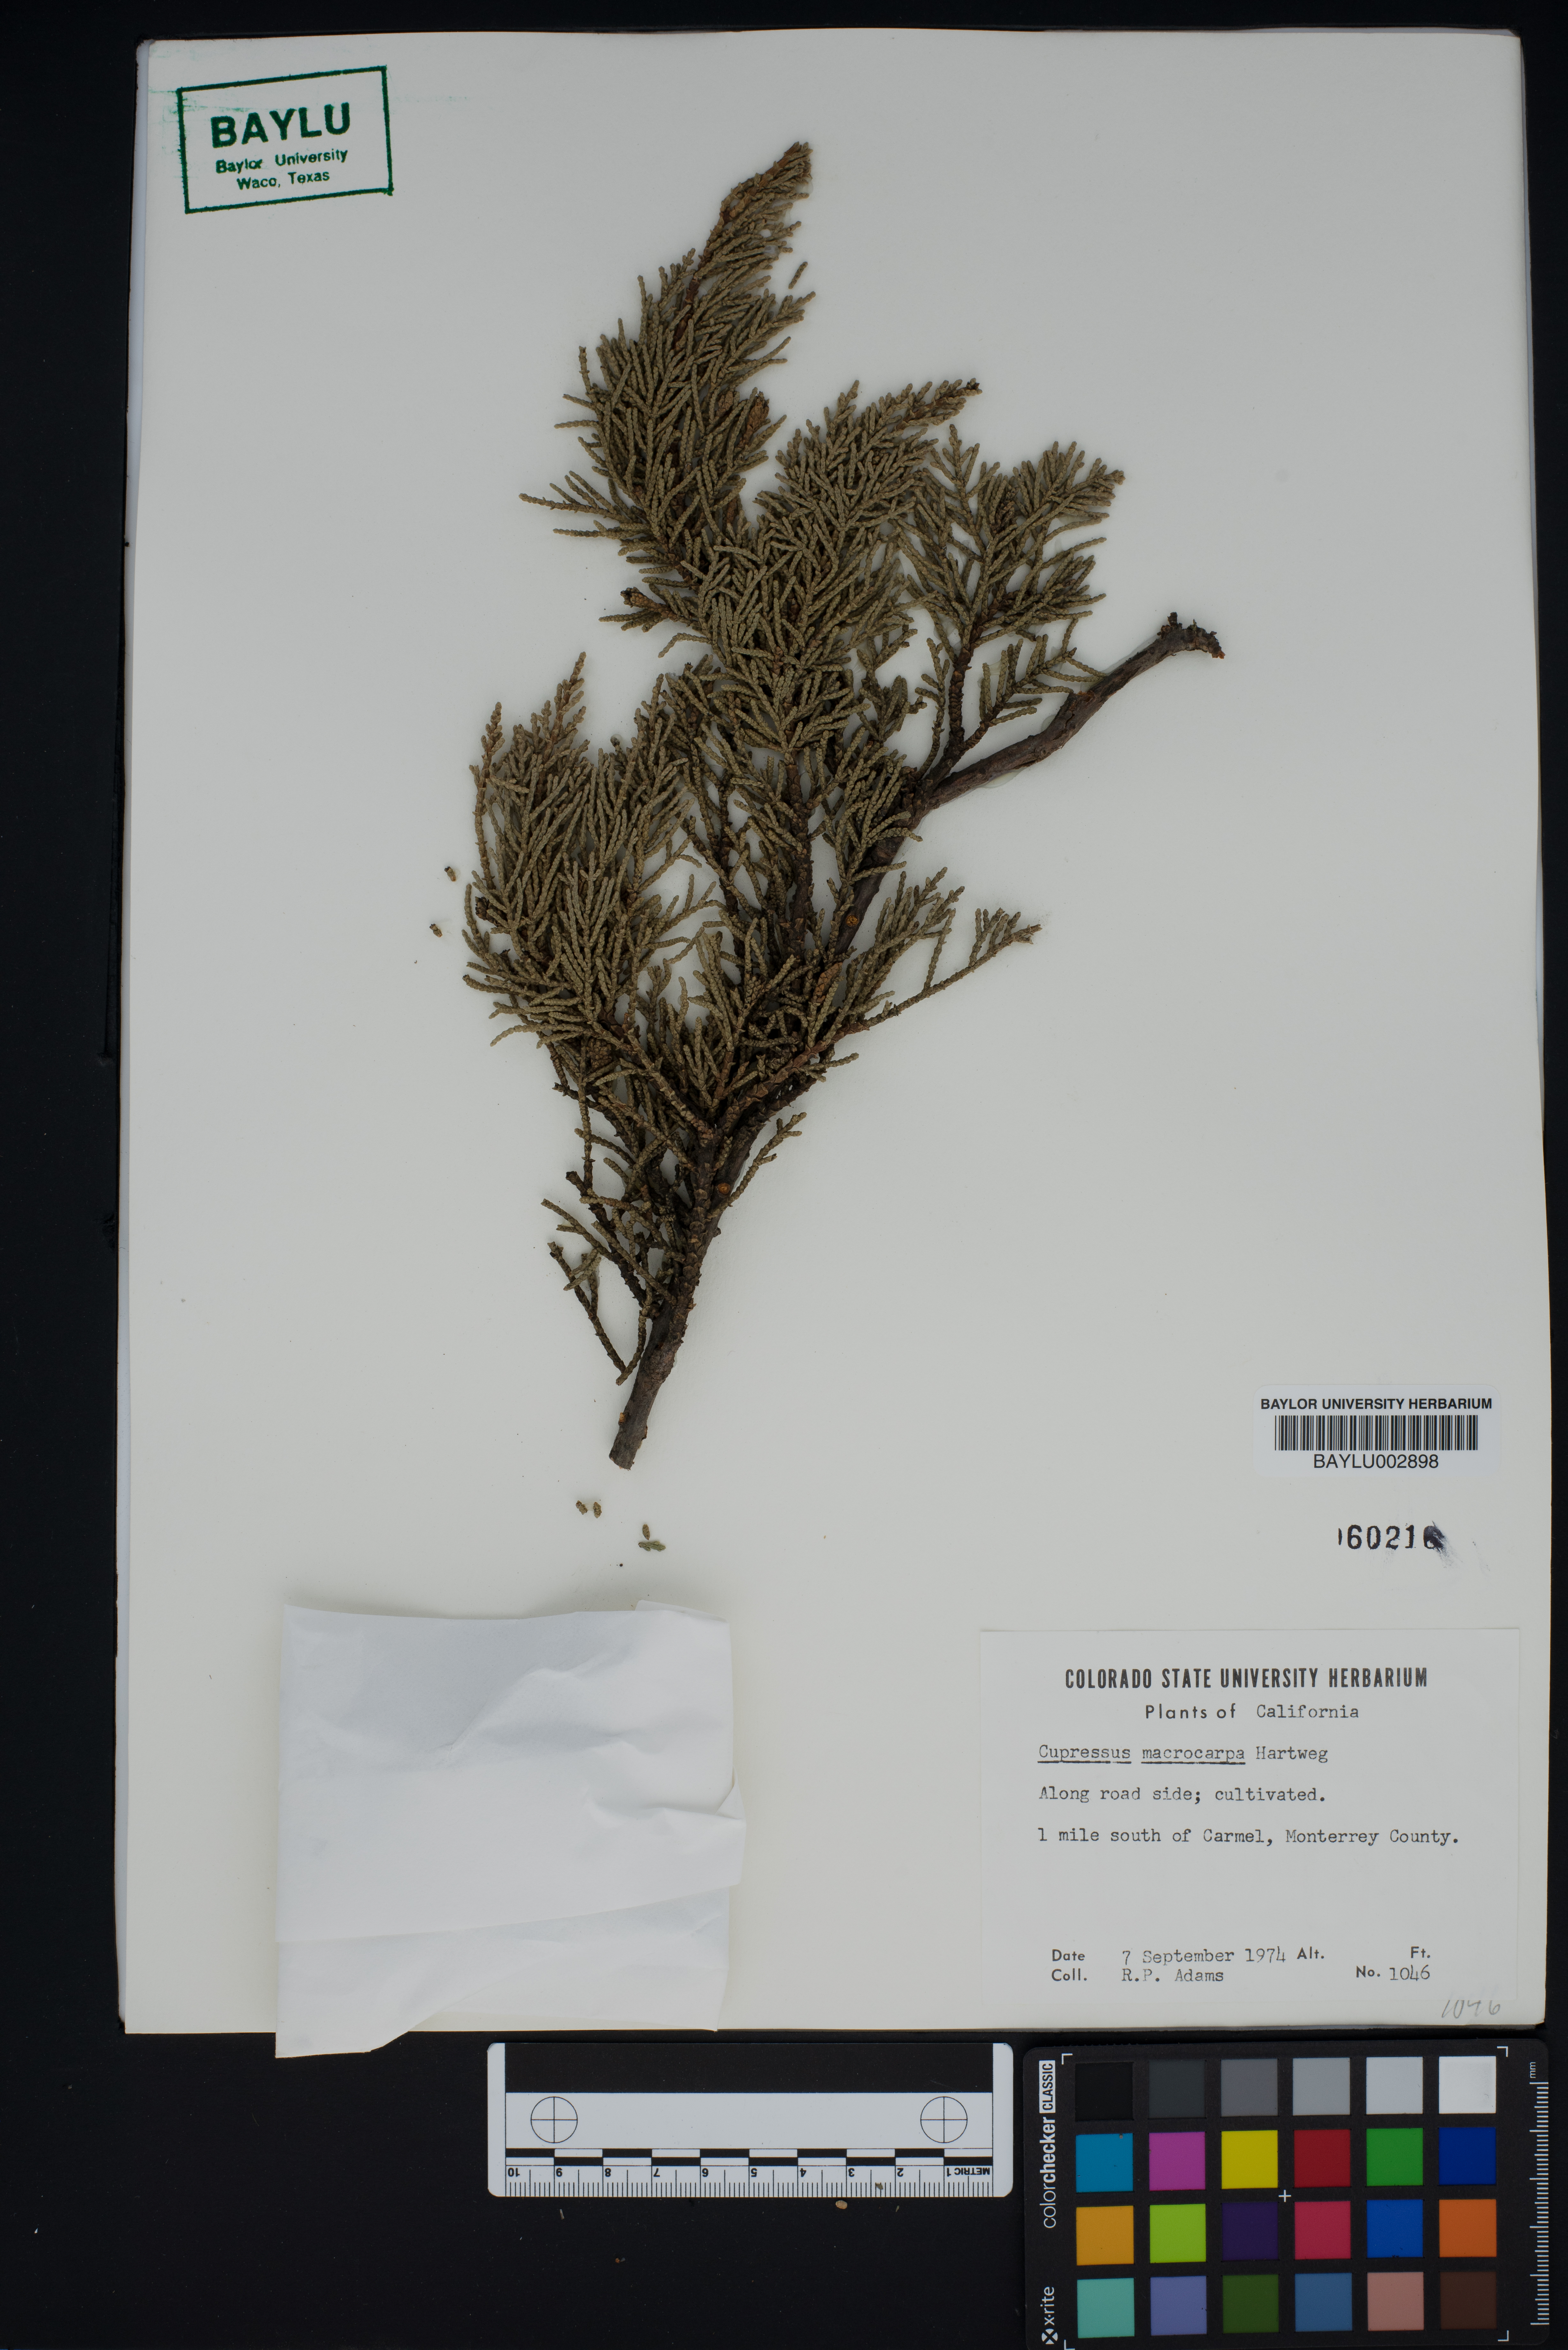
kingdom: Plantae
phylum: Tracheophyta
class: Pinopsida
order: Pinales
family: Cupressaceae
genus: Cupressus
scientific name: Cupressus macrocarpa
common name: Monterey cypress
